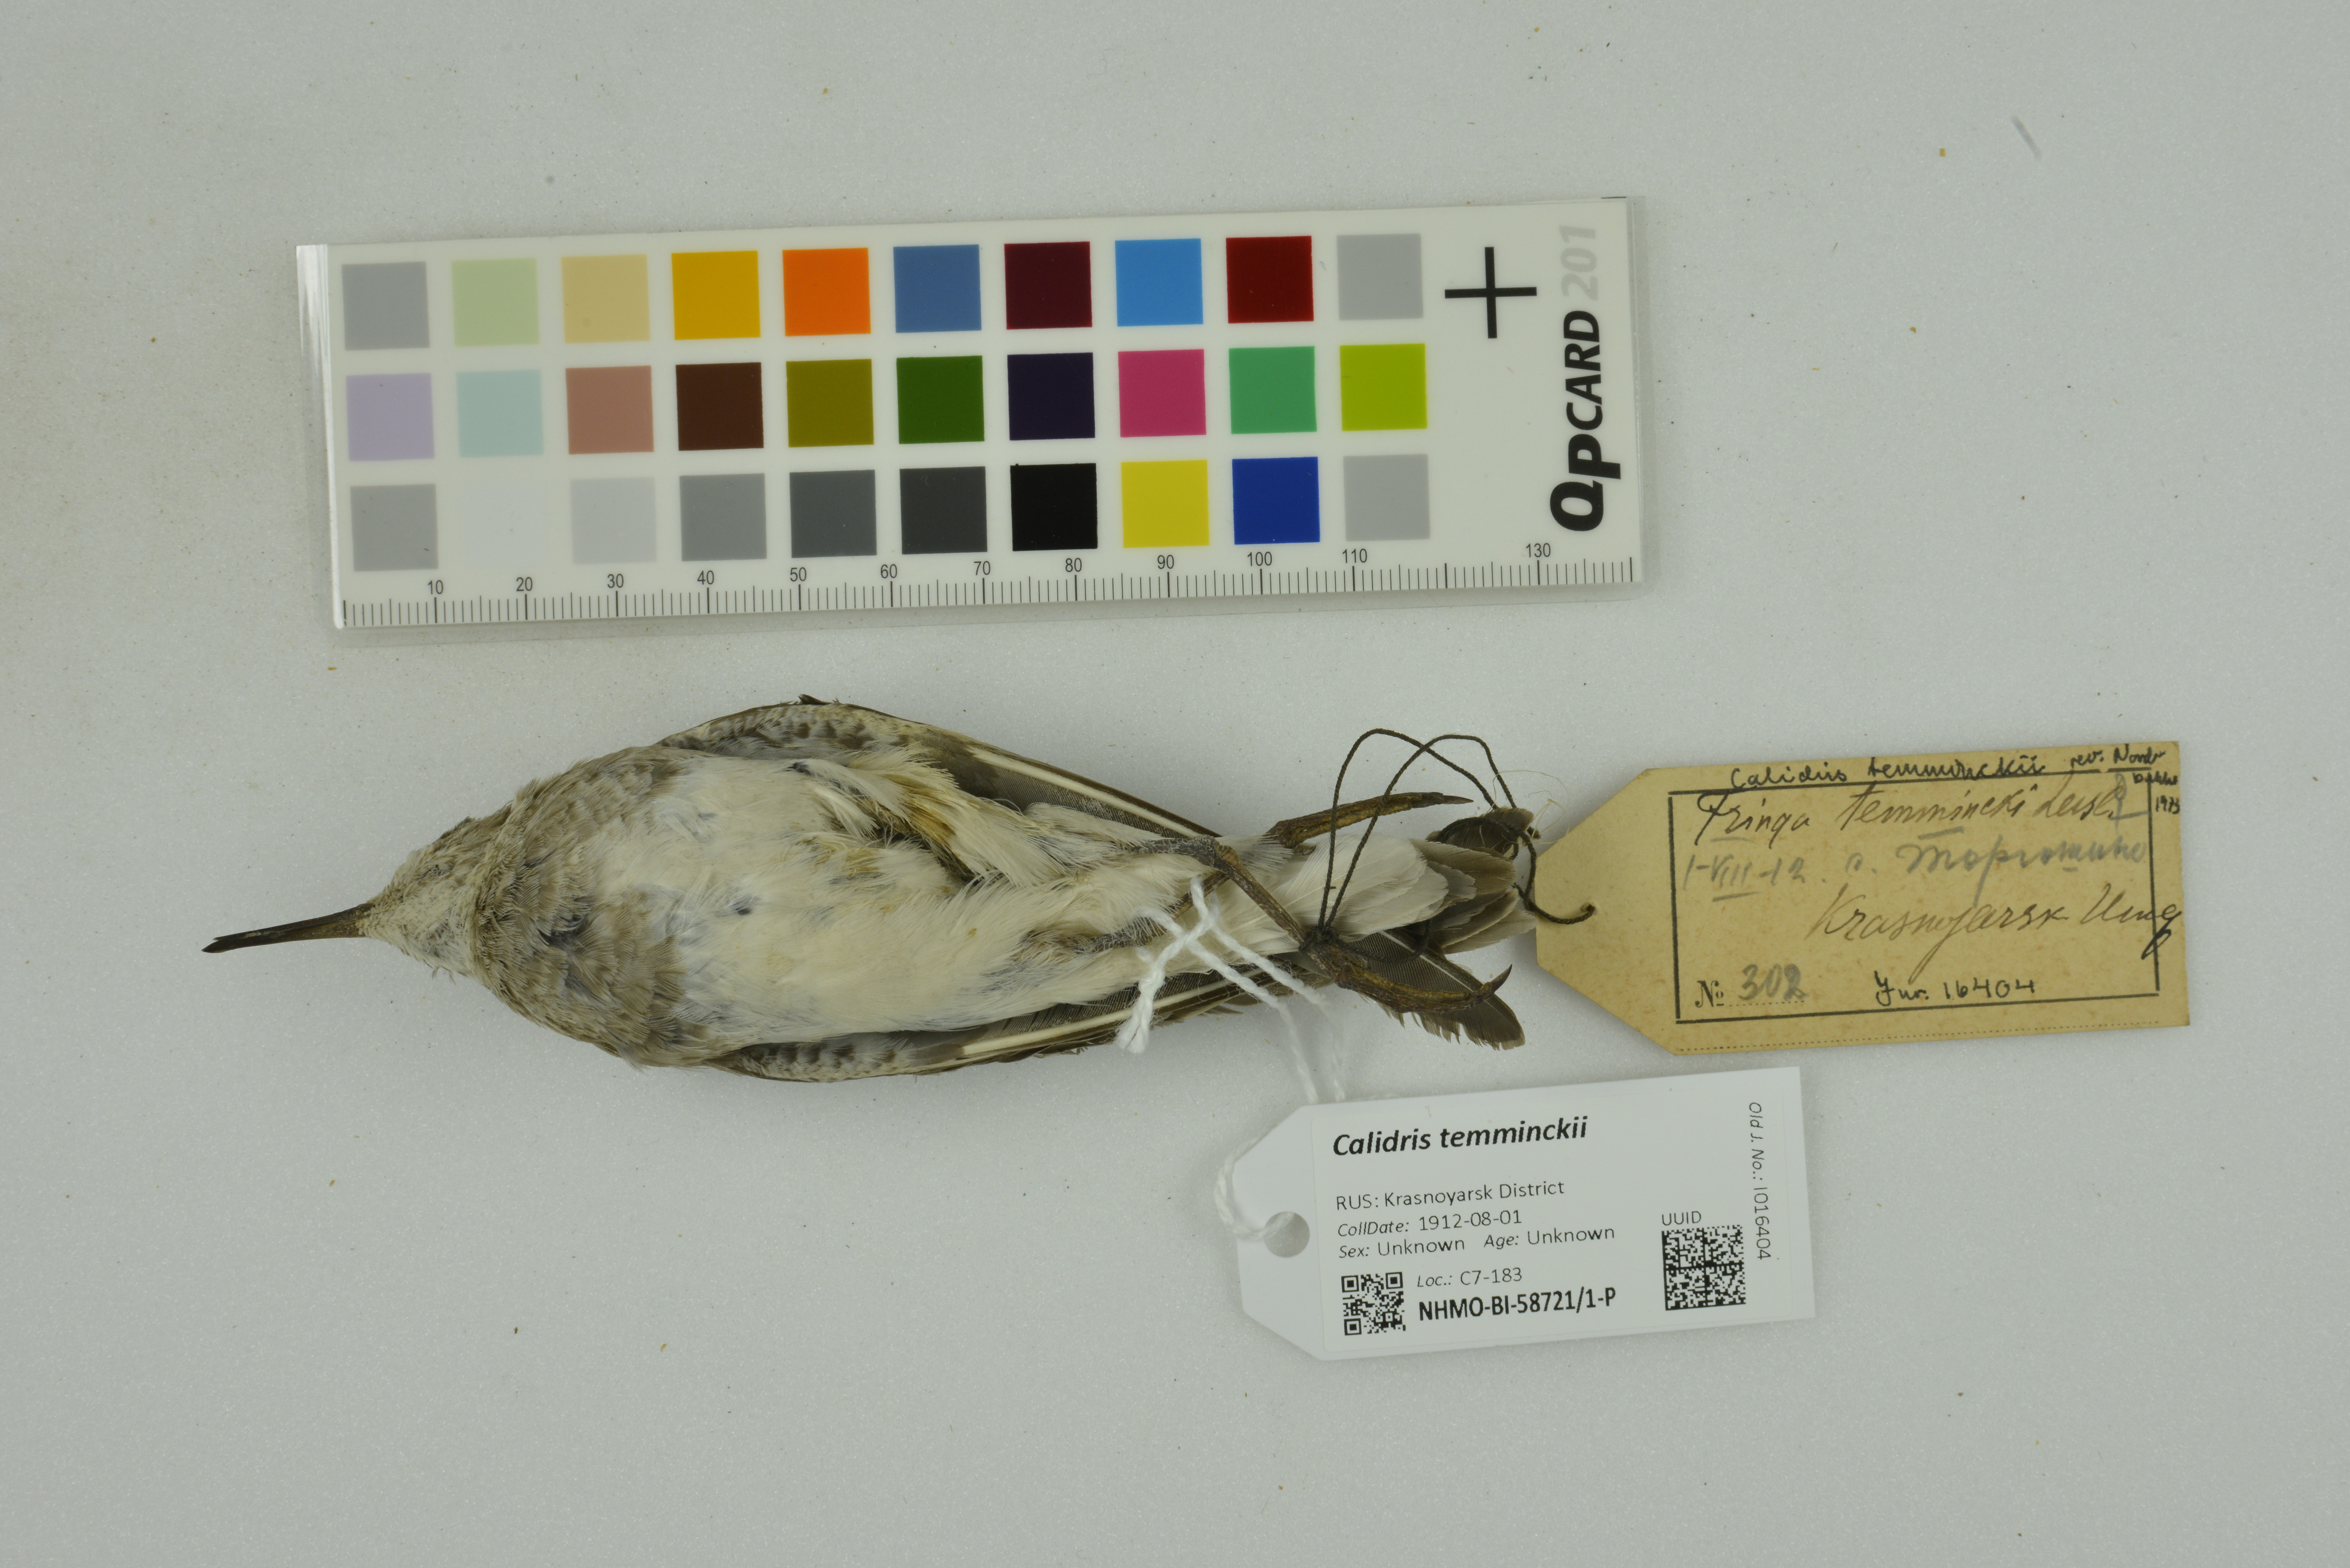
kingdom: Animalia
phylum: Chordata
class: Aves
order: Charadriiformes
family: Scolopacidae
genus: Calidris
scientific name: Calidris temminckii
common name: Temminck's stint
